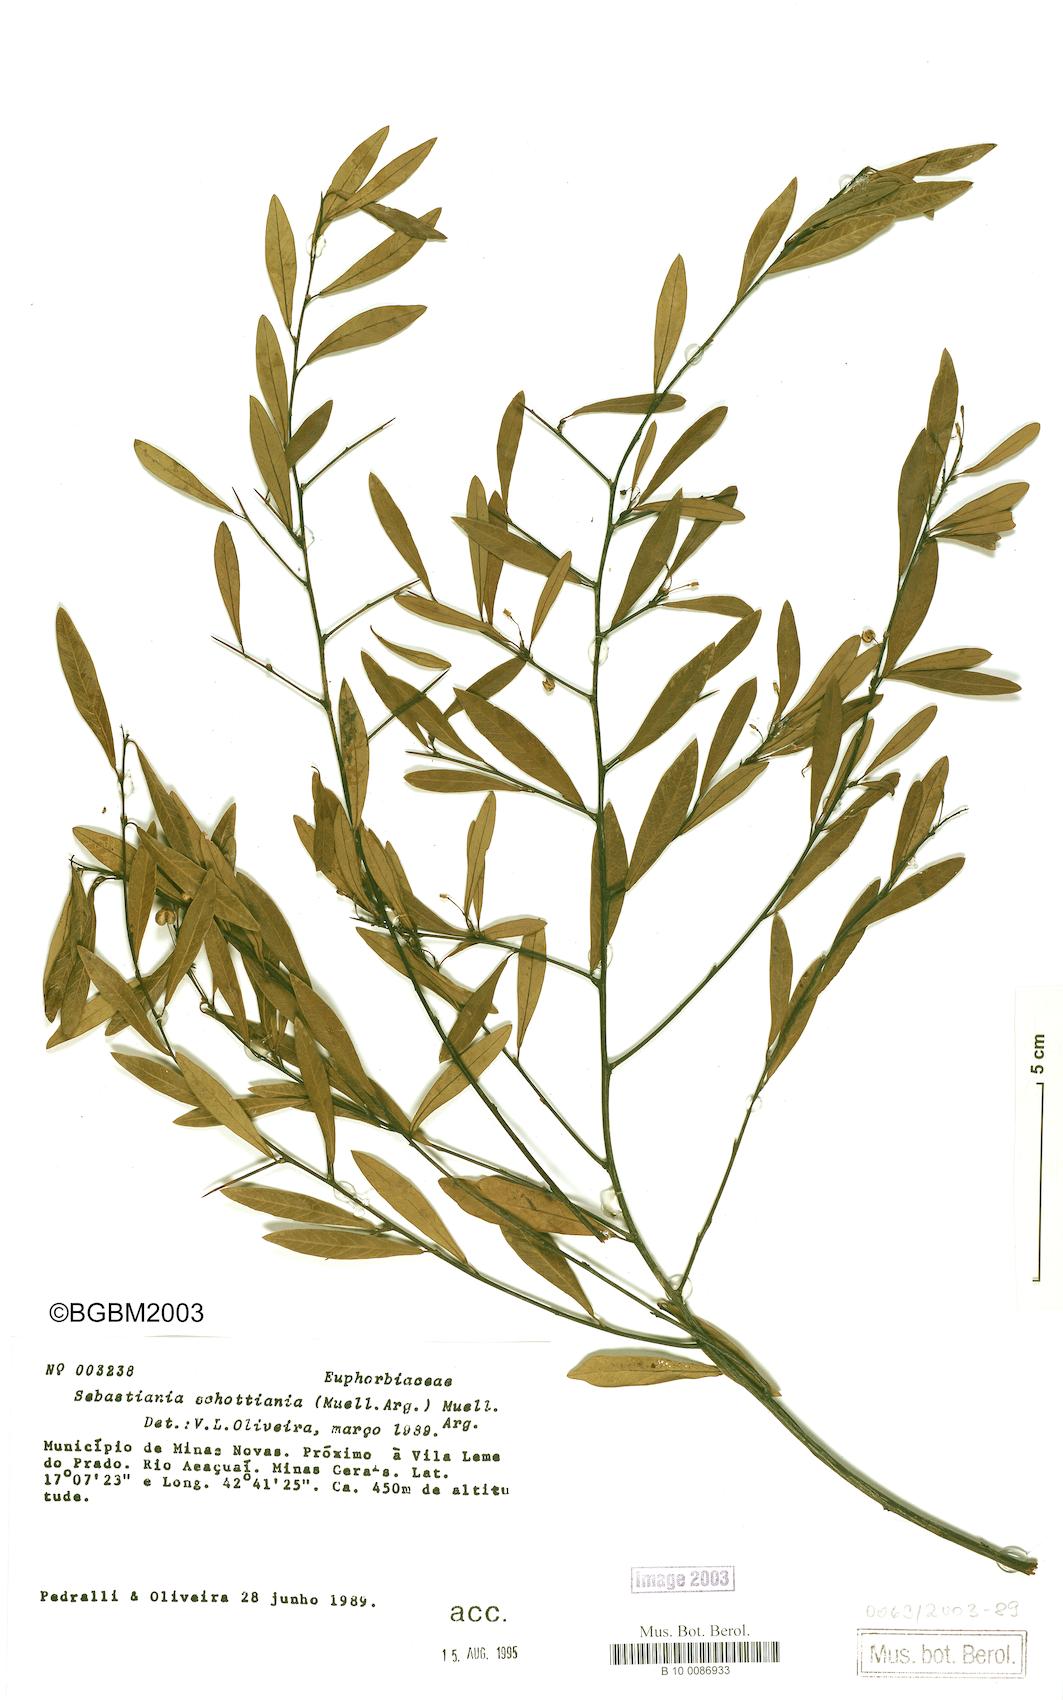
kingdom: Plantae
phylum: Tracheophyta
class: Magnoliopsida
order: Malpighiales
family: Euphorbiaceae
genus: Sebastiania
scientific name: Sebastiania schottiana
